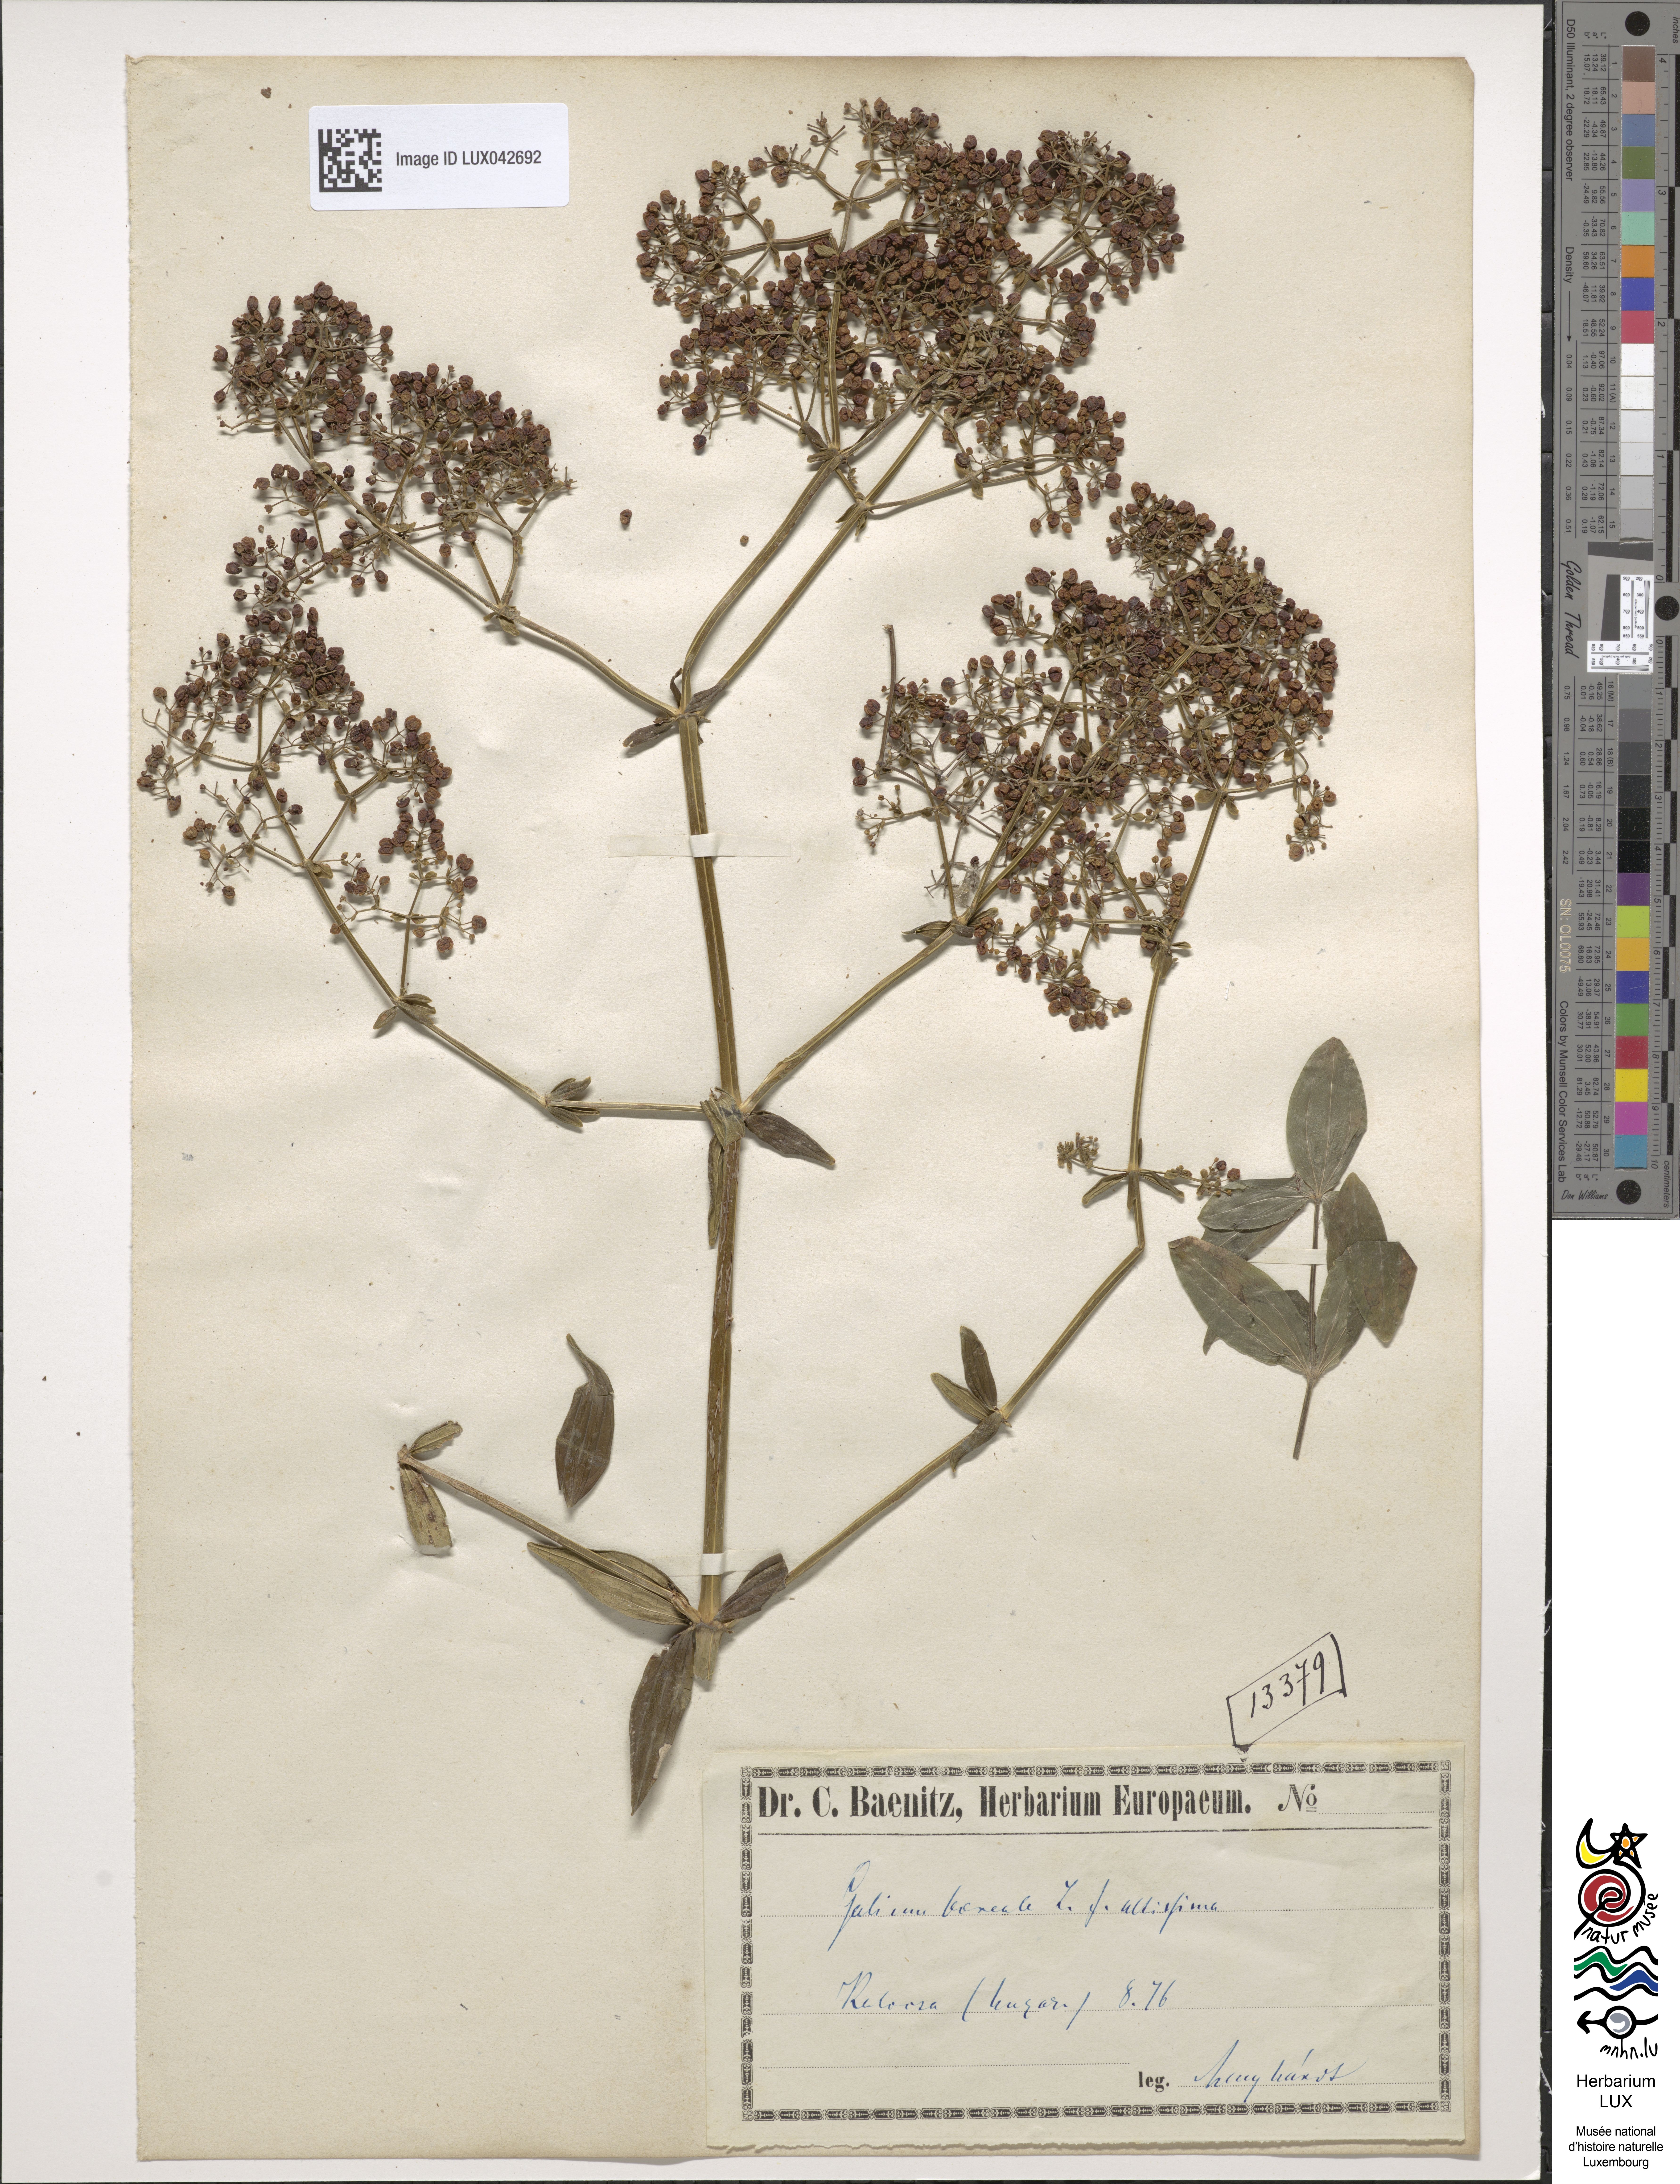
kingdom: Plantae
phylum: Tracheophyta
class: Magnoliopsida
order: Gentianales
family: Rubiaceae
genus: Galium
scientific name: Galium boreale
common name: Northern bedstraw
